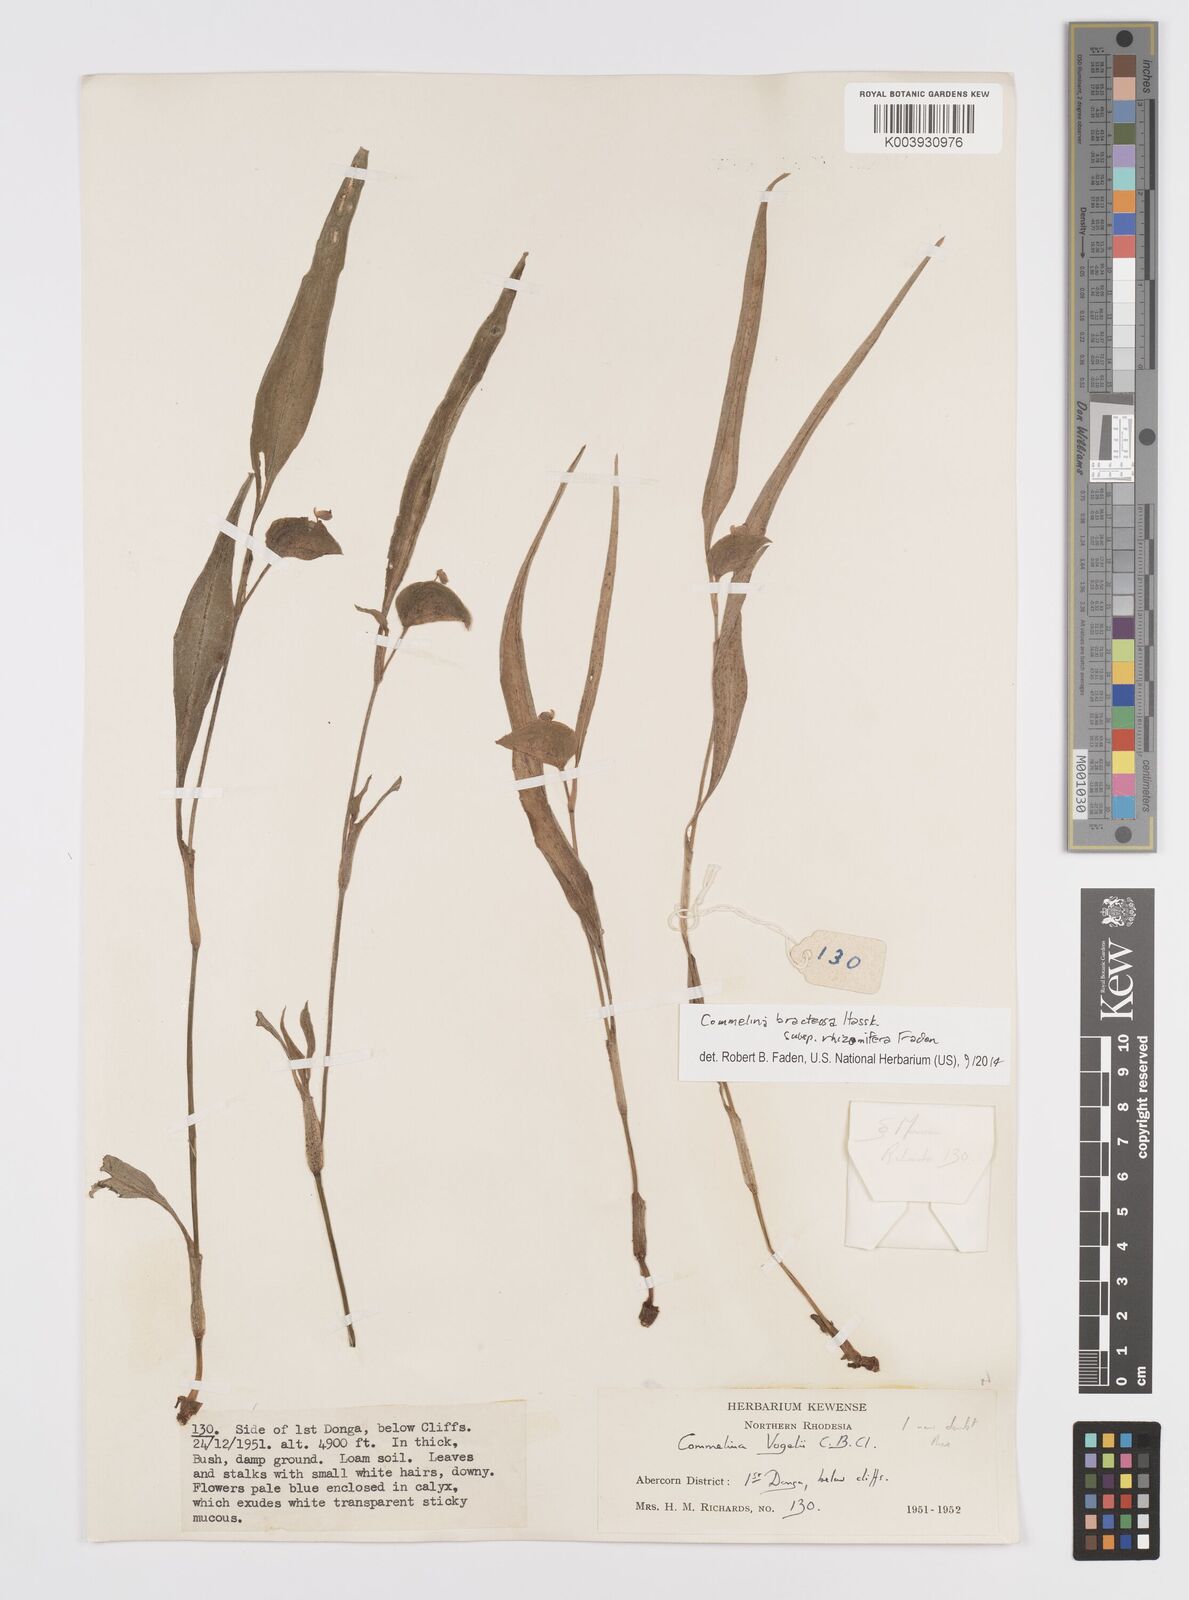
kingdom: Plantae
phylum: Tracheophyta
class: Liliopsida
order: Commelinales
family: Commelinaceae
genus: Commelina
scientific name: Commelina bracteosa
